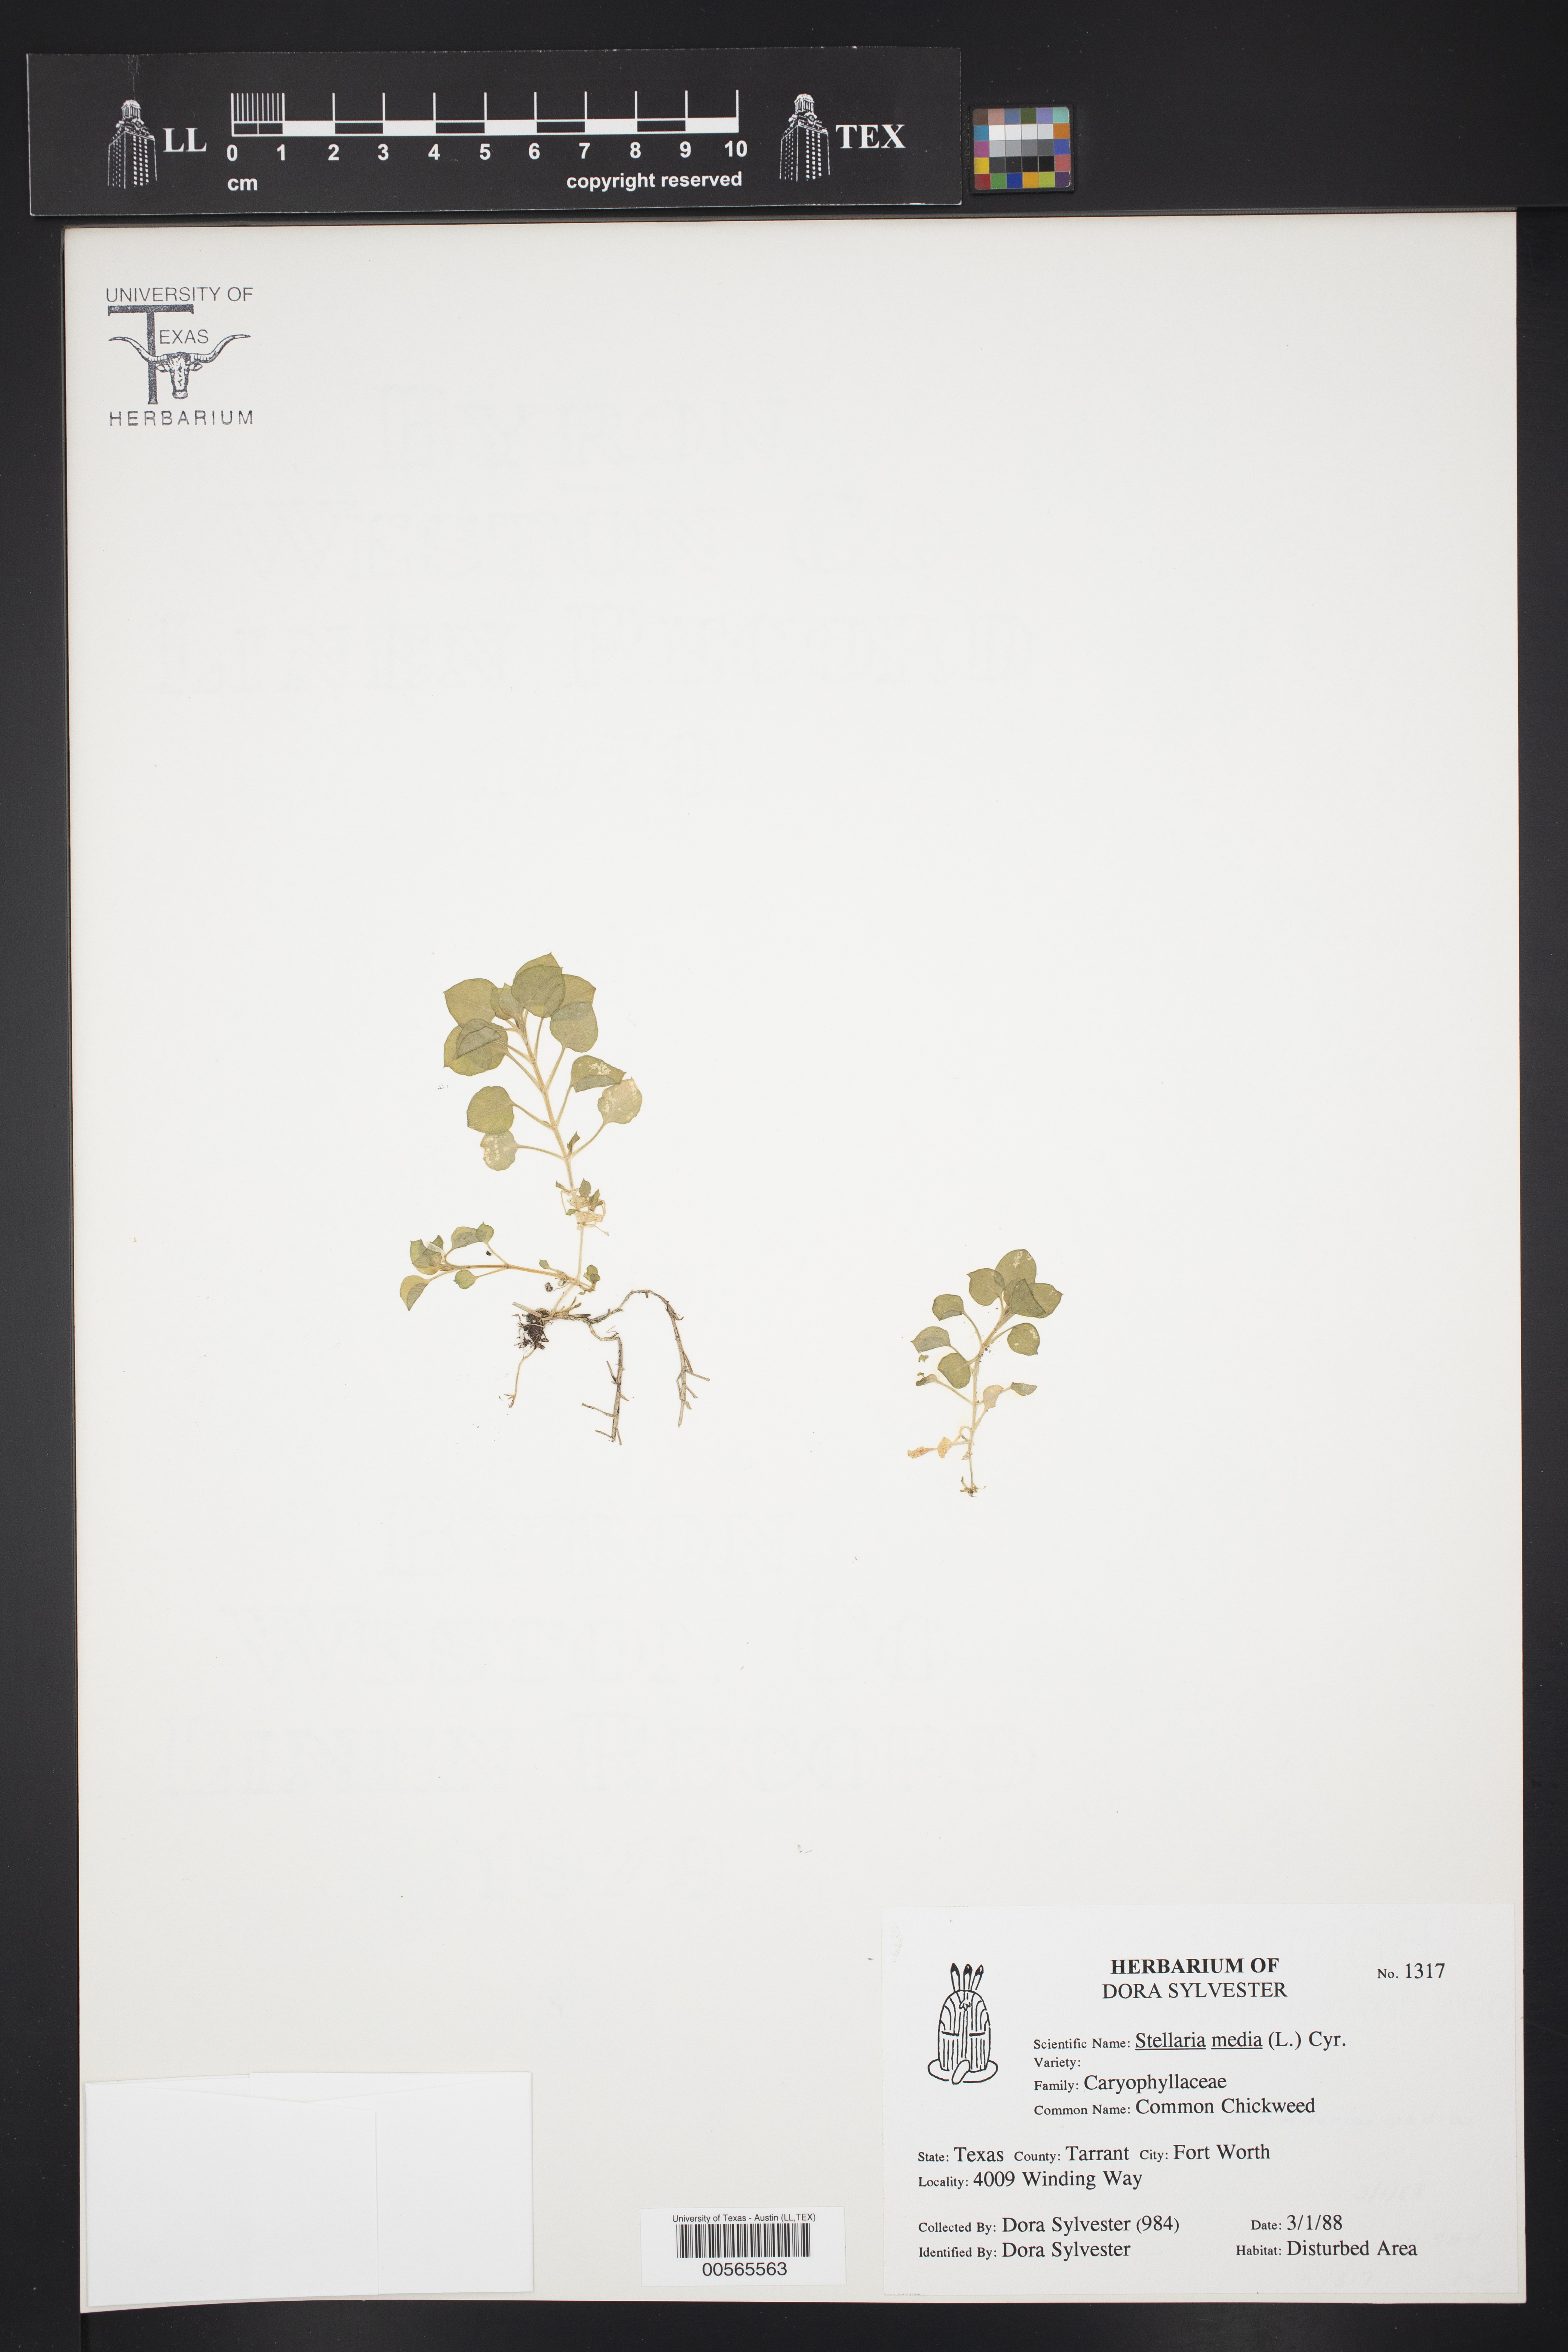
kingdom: Plantae
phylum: Tracheophyta
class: Magnoliopsida
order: Caryophyllales
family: Caryophyllaceae
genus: Stellaria
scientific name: Stellaria media
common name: Common chickweed
